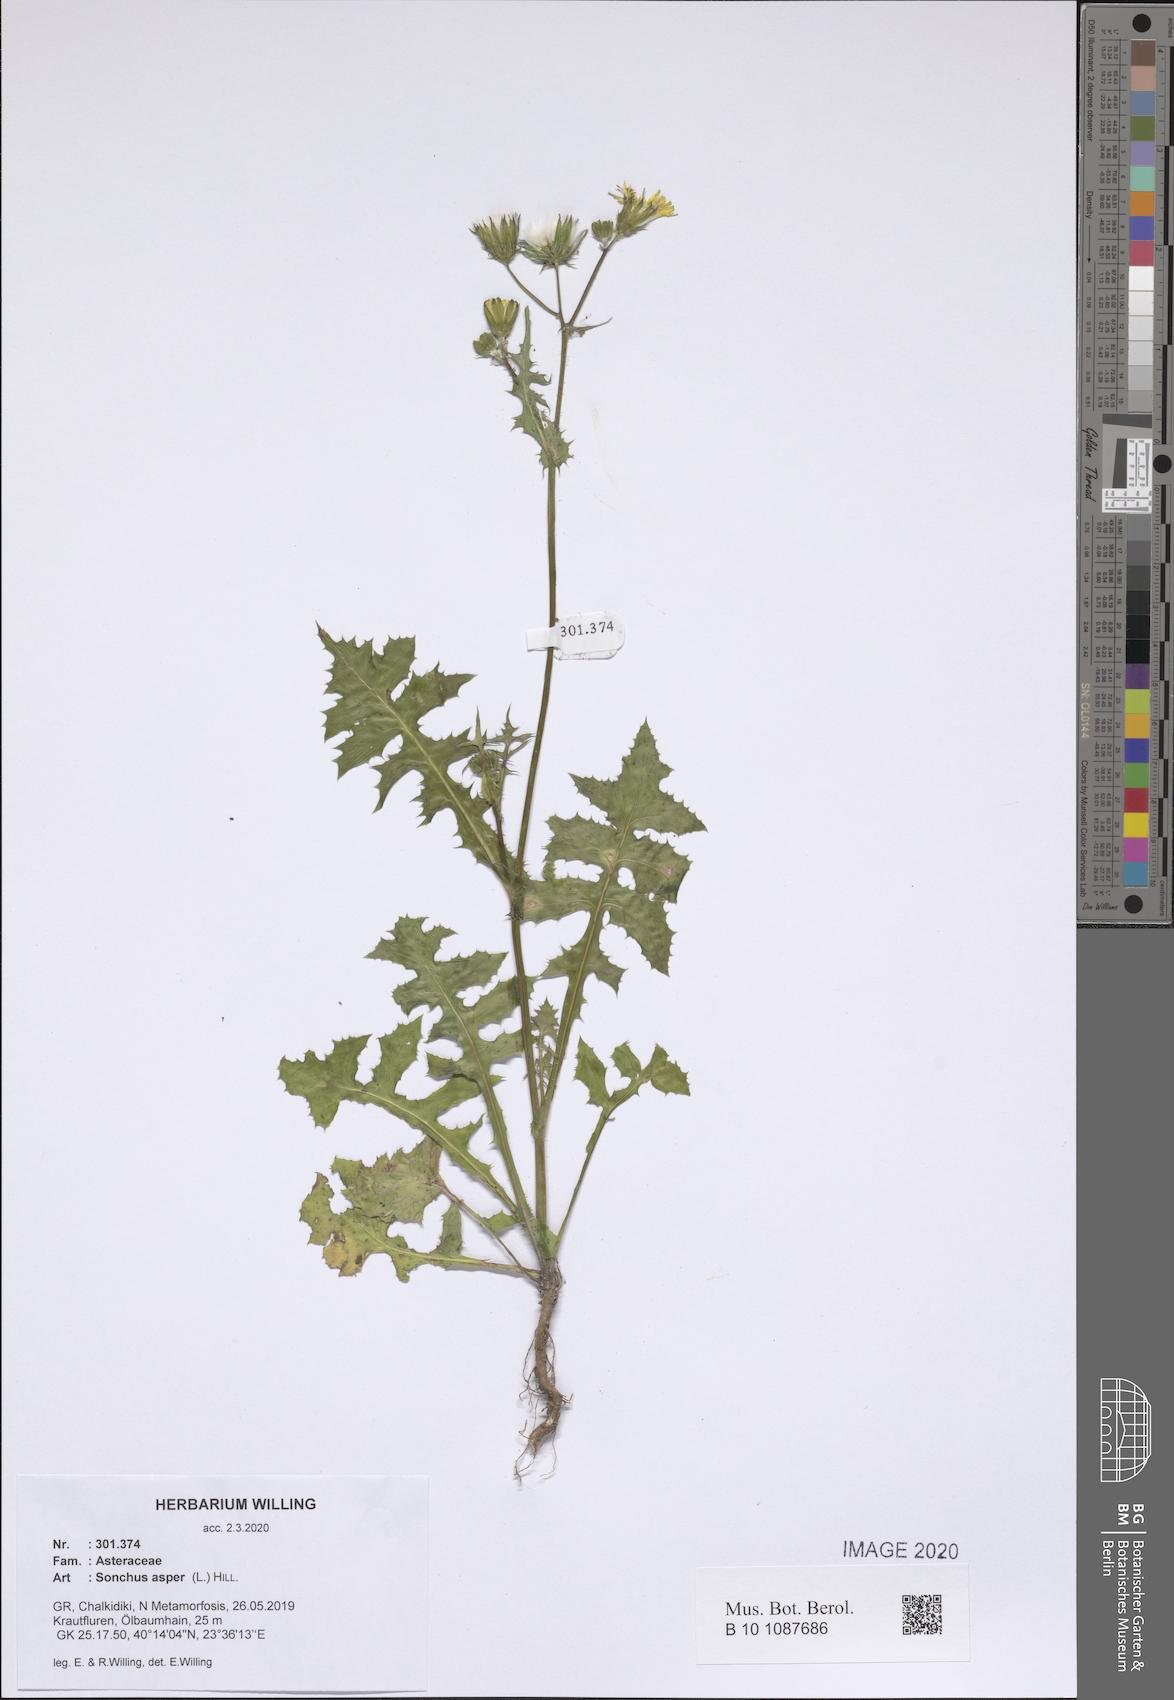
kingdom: Plantae
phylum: Tracheophyta
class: Magnoliopsida
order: Asterales
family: Asteraceae
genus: Sonchus
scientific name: Sonchus asper
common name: Prickly sow-thistle
